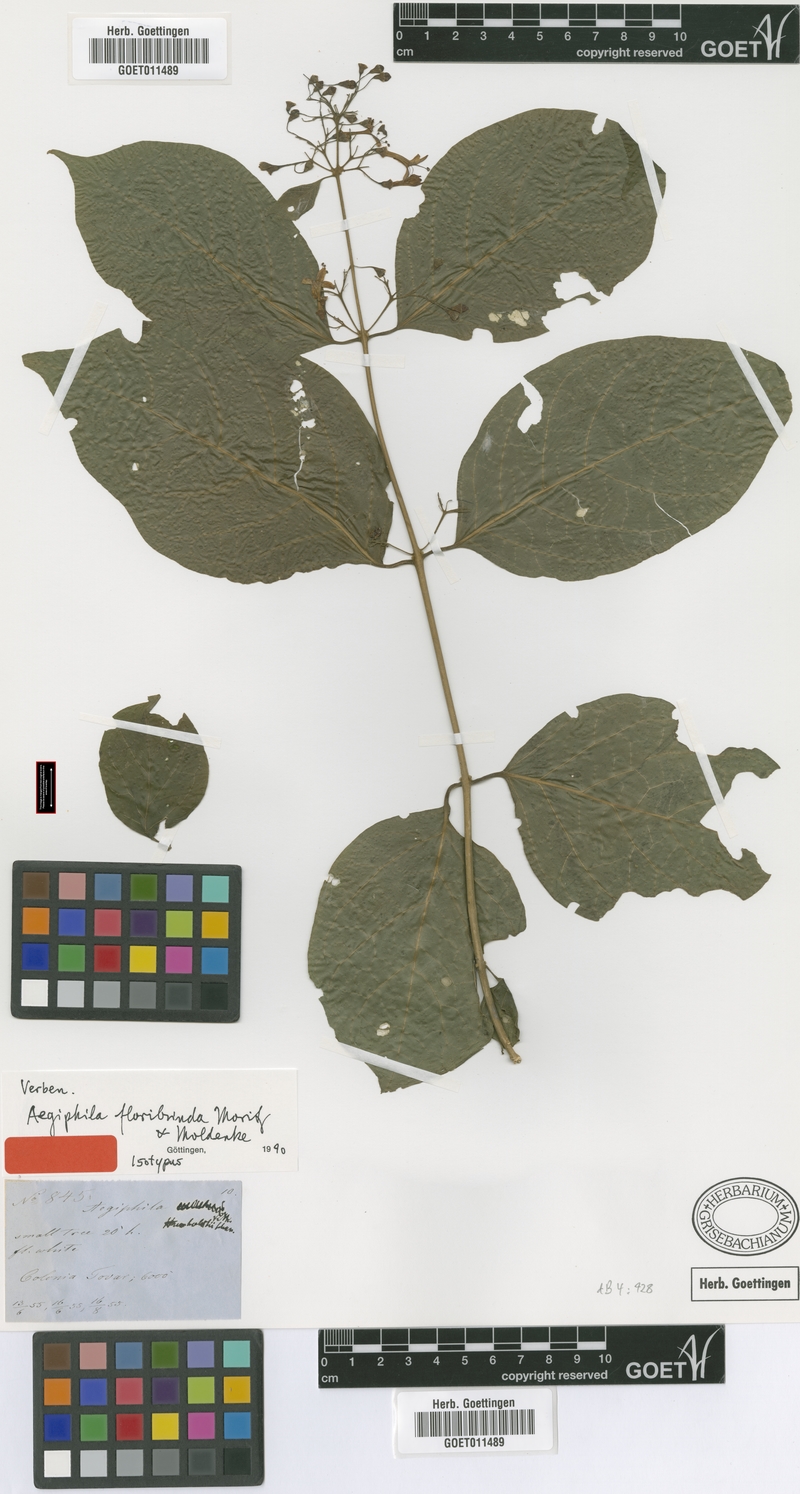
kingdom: Plantae
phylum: Tracheophyta
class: Magnoliopsida
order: Lamiales
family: Lamiaceae
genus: Aegiphila
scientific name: Aegiphila floribunda
